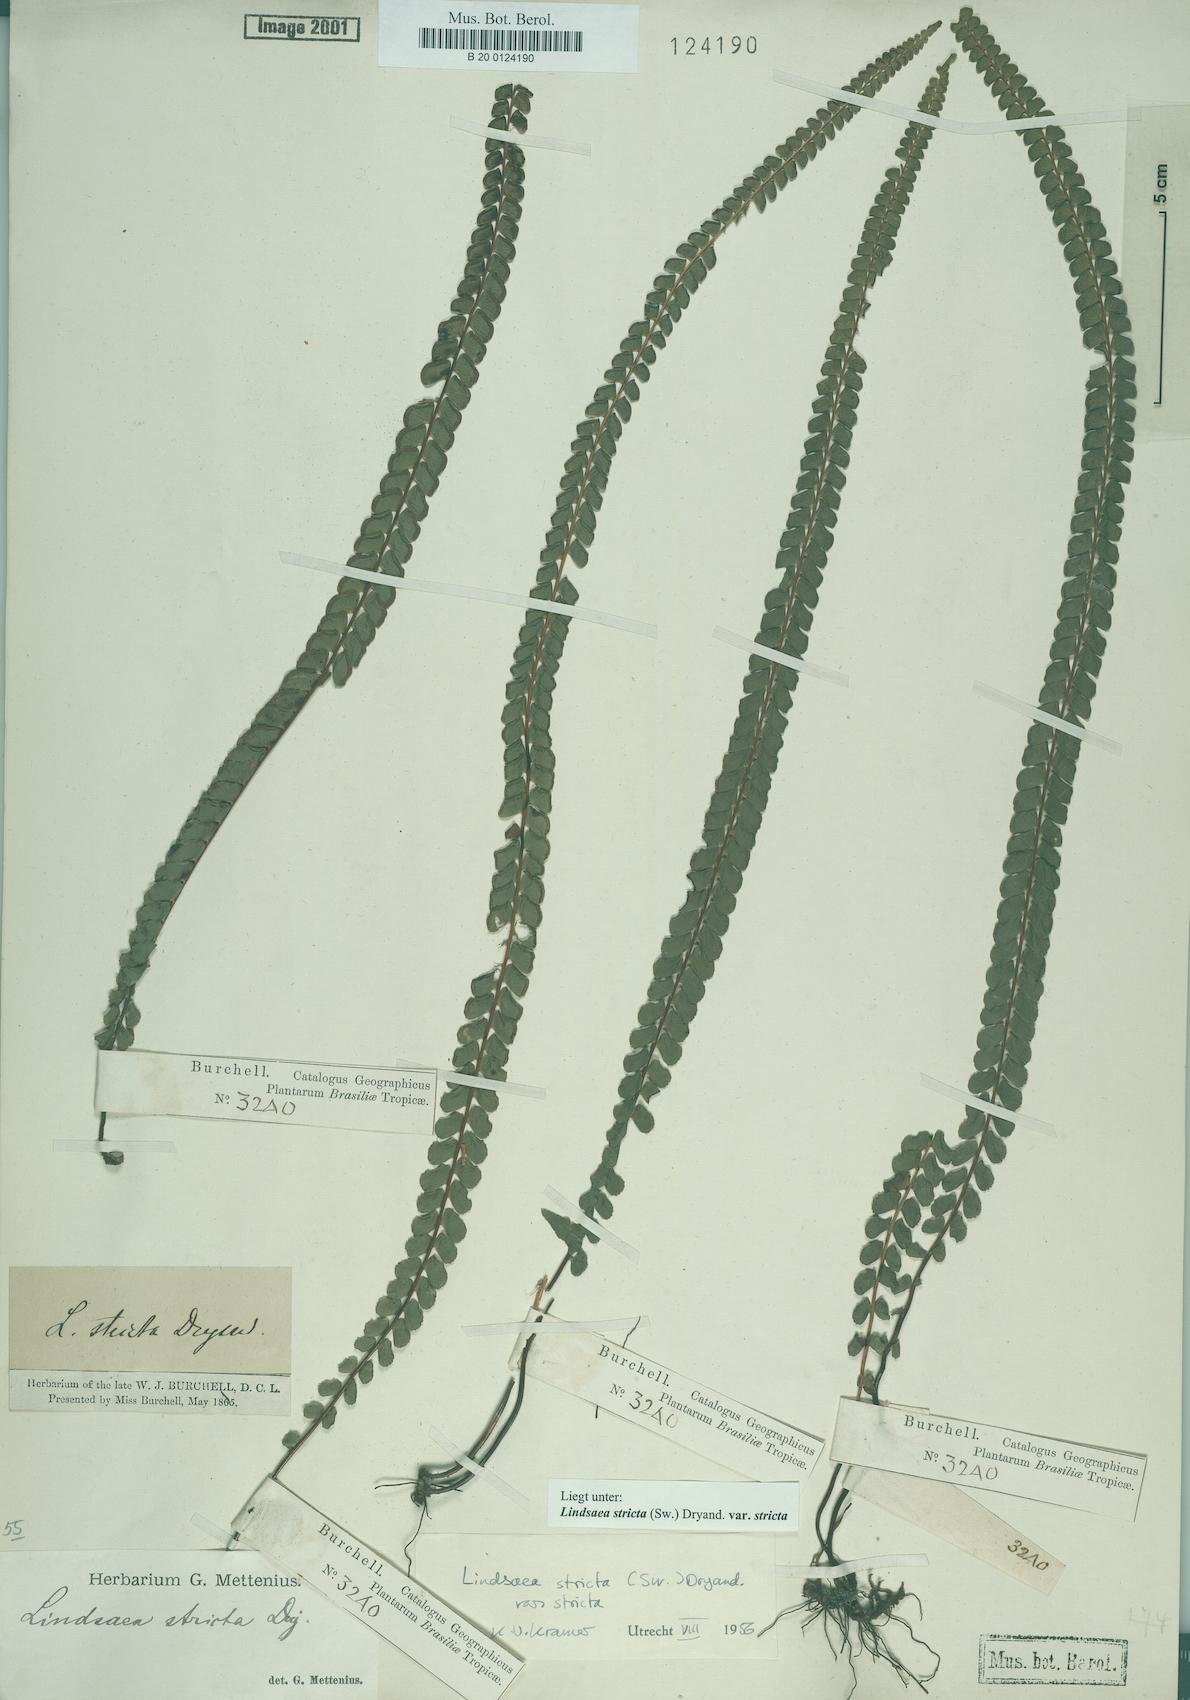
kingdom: Plantae
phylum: Tracheophyta
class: Polypodiopsida
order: Polypodiales
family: Lindsaeaceae
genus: Lindsaea
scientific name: Lindsaea stricta
